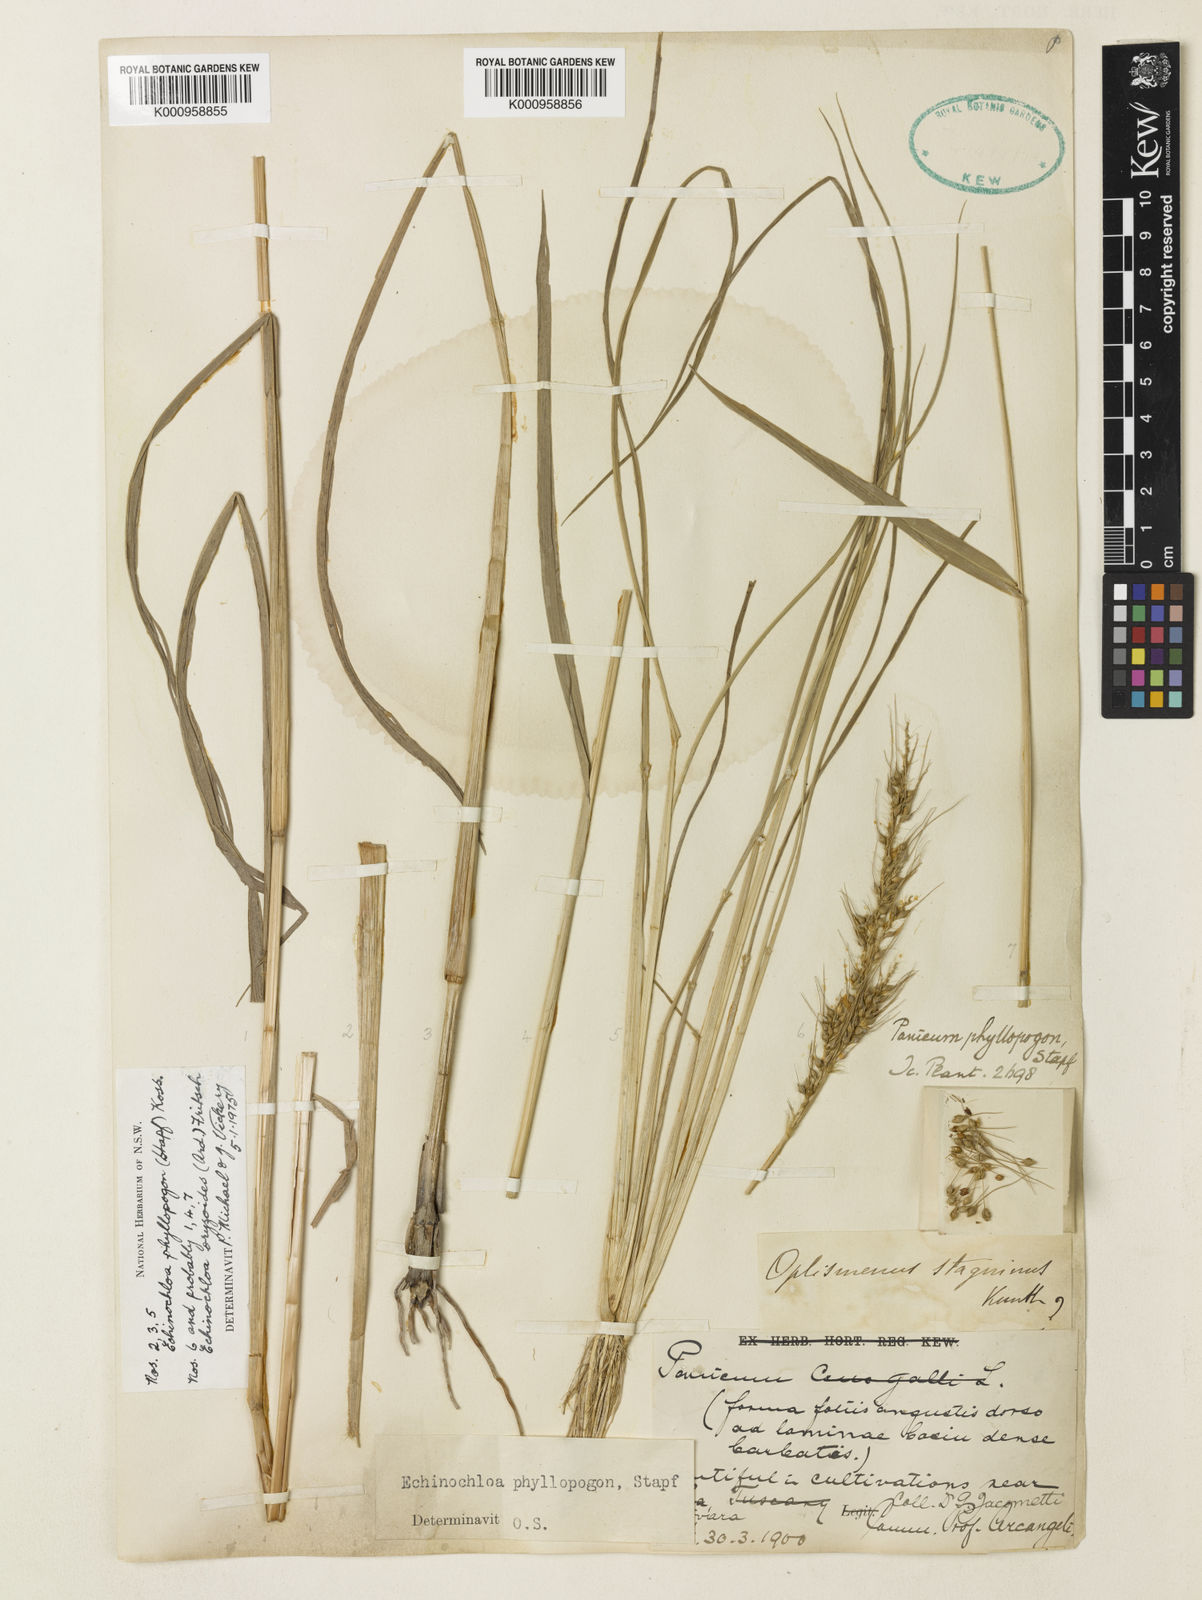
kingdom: Plantae
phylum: Tracheophyta
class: Liliopsida
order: Poales
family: Poaceae
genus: Echinochloa
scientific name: Echinochloa oryzoides
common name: Early water grass
